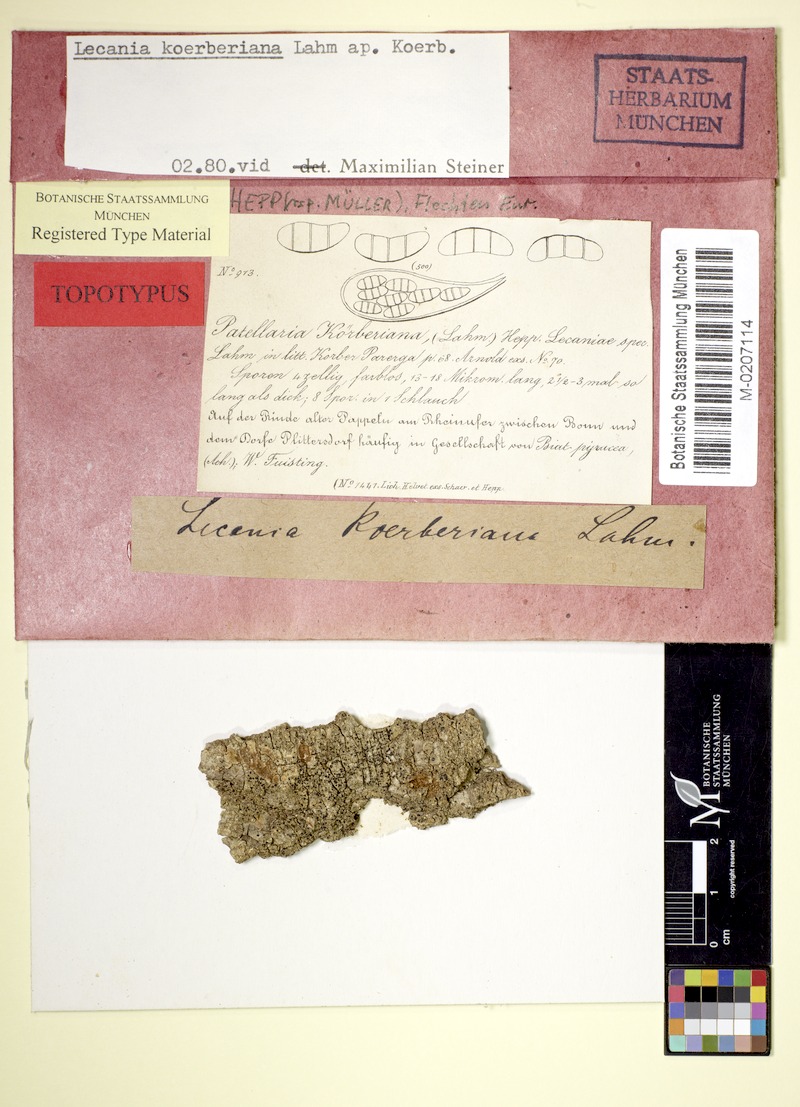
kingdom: Fungi
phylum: Ascomycota
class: Lecanoromycetes
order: Lecanorales
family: Ramalinaceae
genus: Lecania
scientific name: Lecania koerberiana
